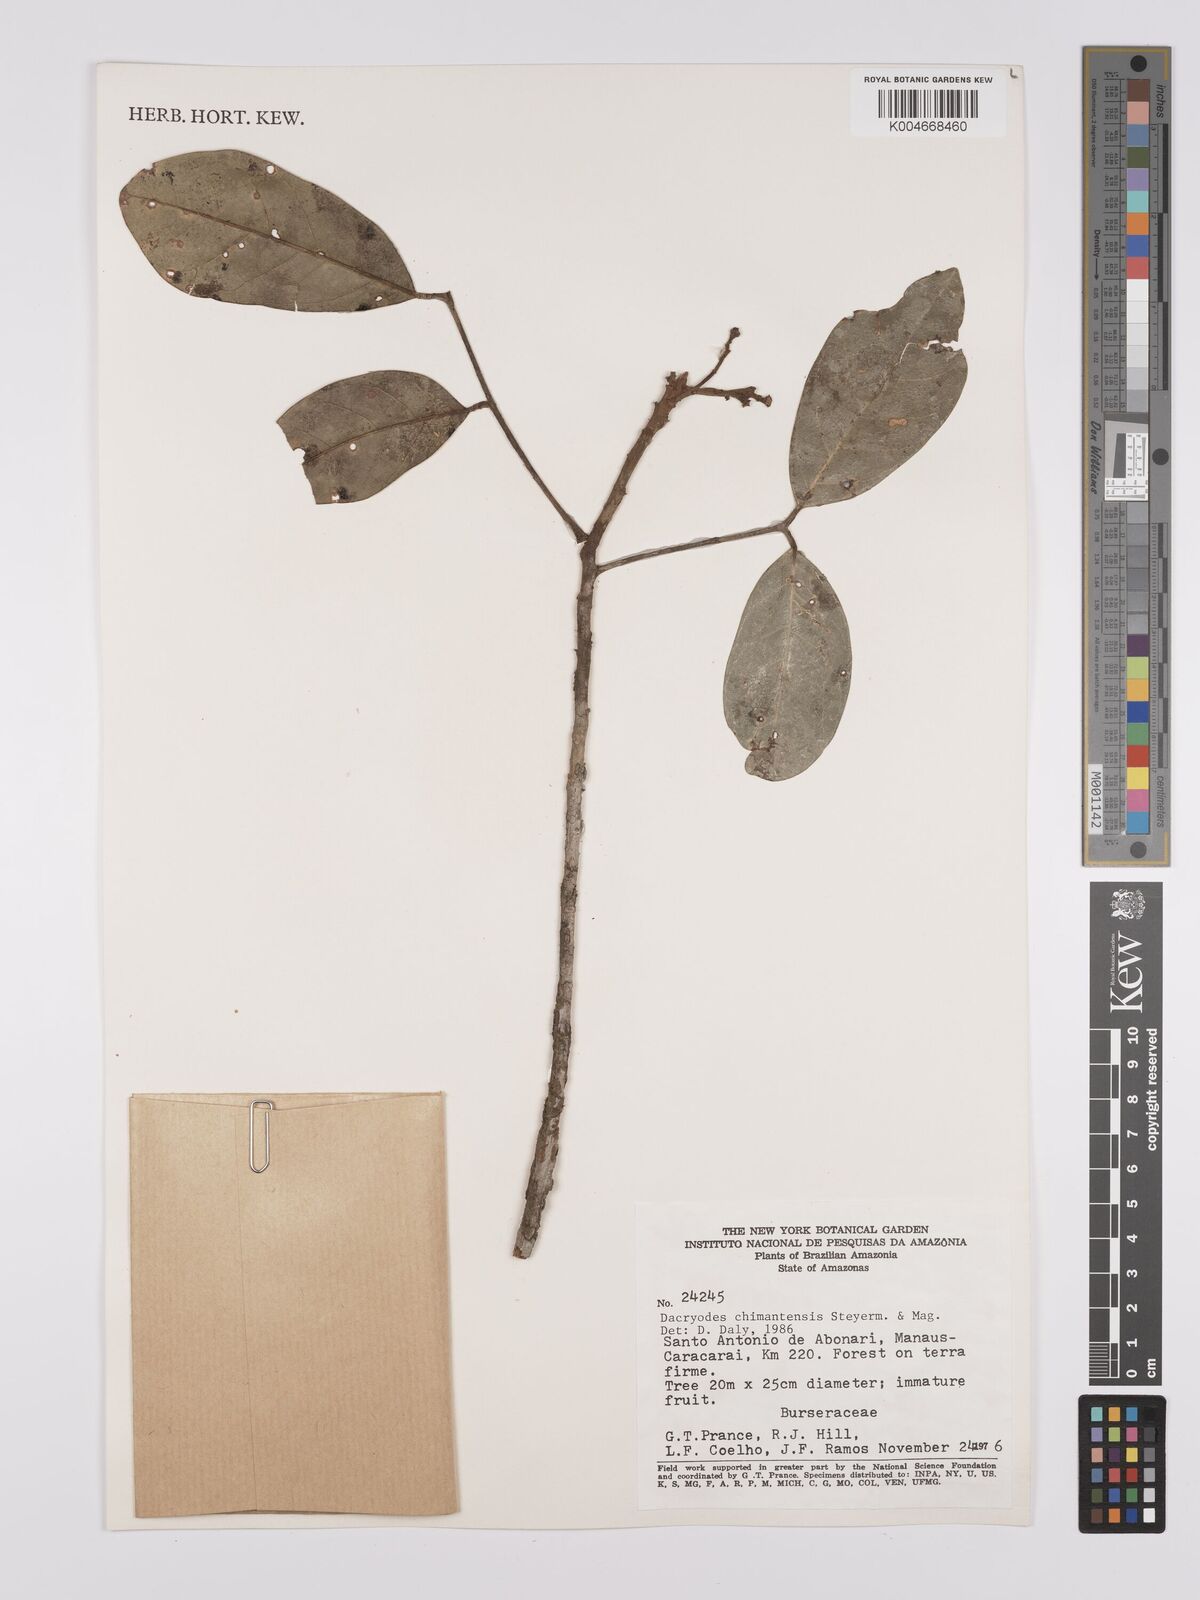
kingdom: Plantae
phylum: Tracheophyta
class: Magnoliopsida
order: Sapindales
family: Burseraceae
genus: Dacryodes
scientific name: Dacryodes chimantensis
